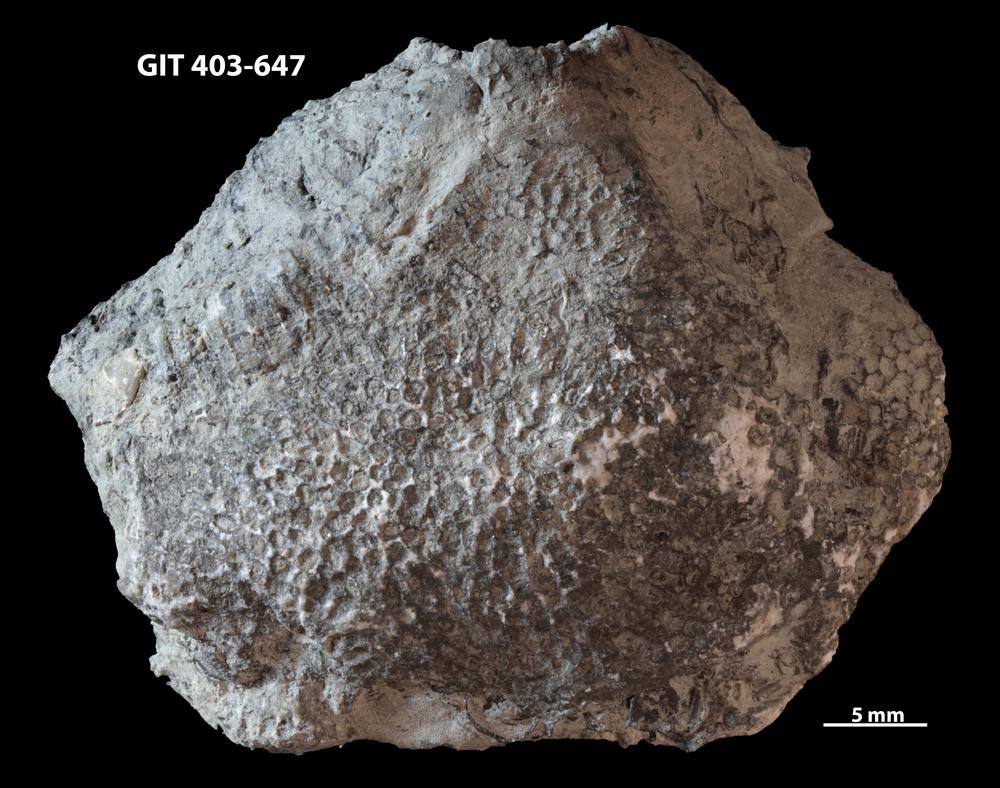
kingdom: Animalia
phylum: Cnidaria
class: Anthozoa
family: Favositidae
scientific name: Favositidae
